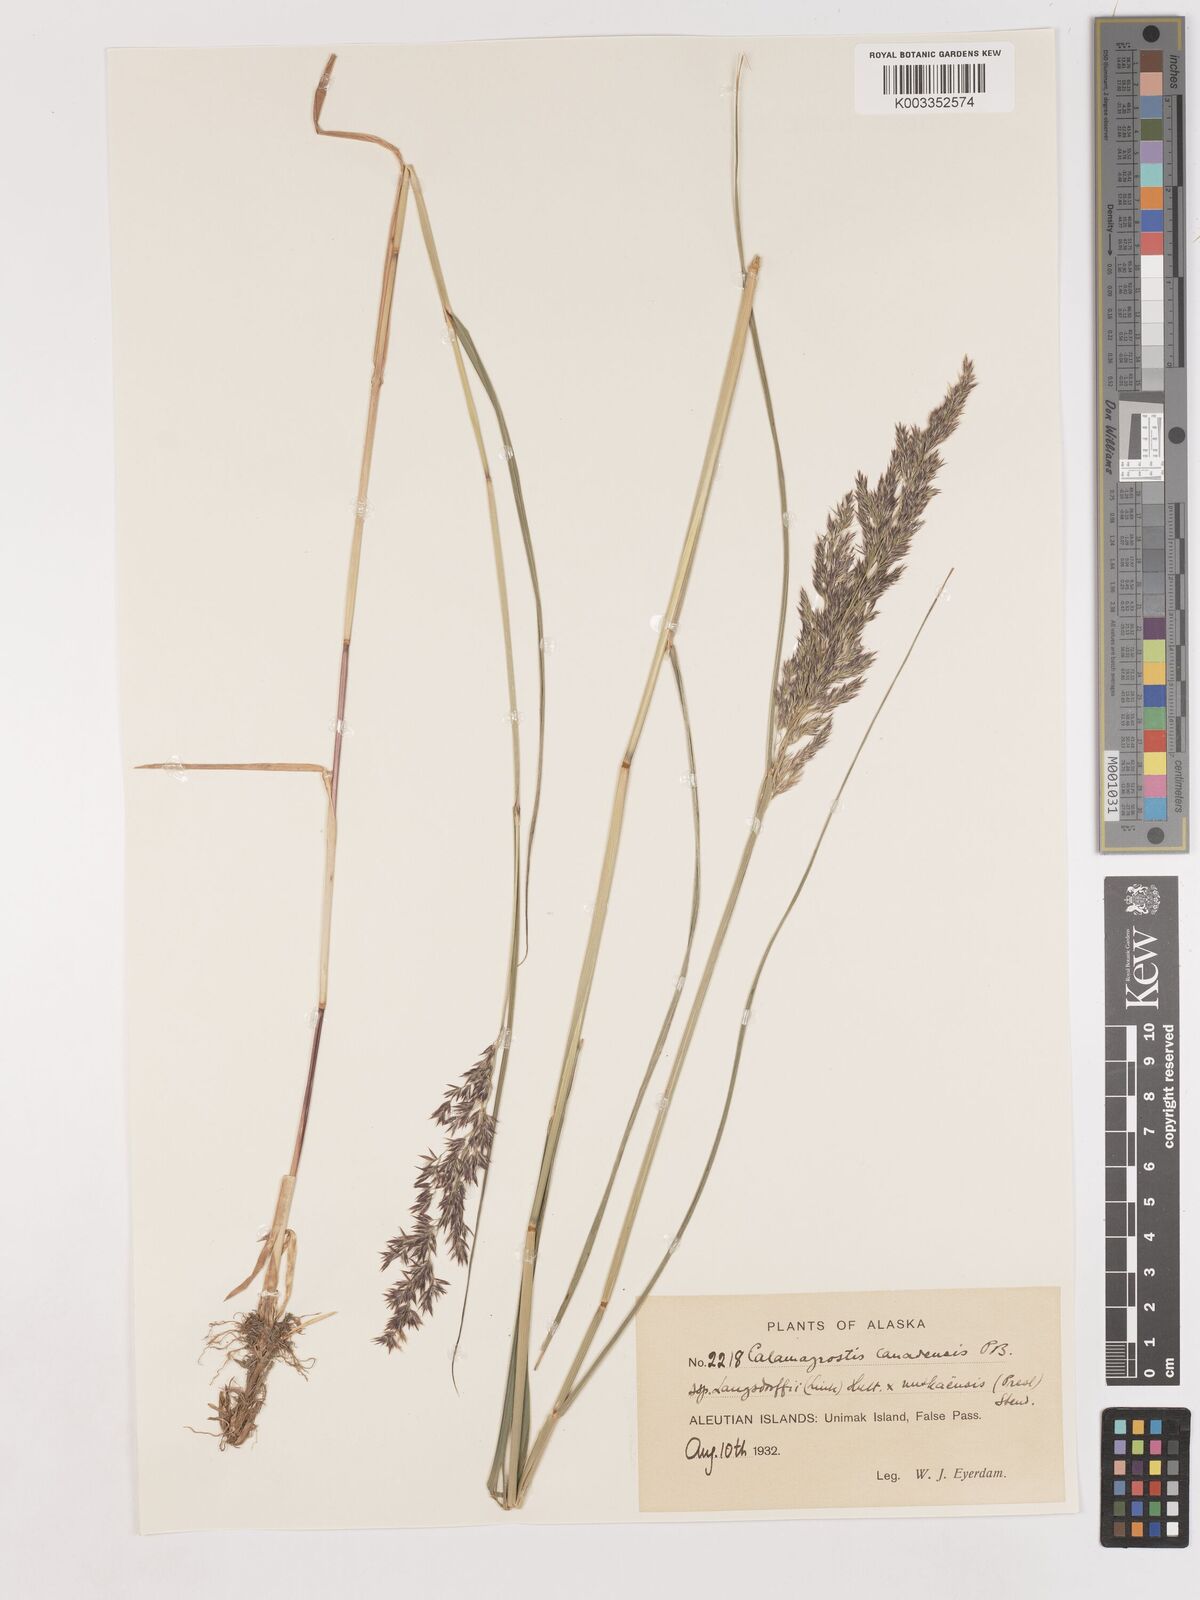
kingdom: Plantae
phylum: Tracheophyta
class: Liliopsida
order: Poales
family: Poaceae
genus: Calamagrostis
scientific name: Calamagrostis canadensis
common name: Canada bluejoint
